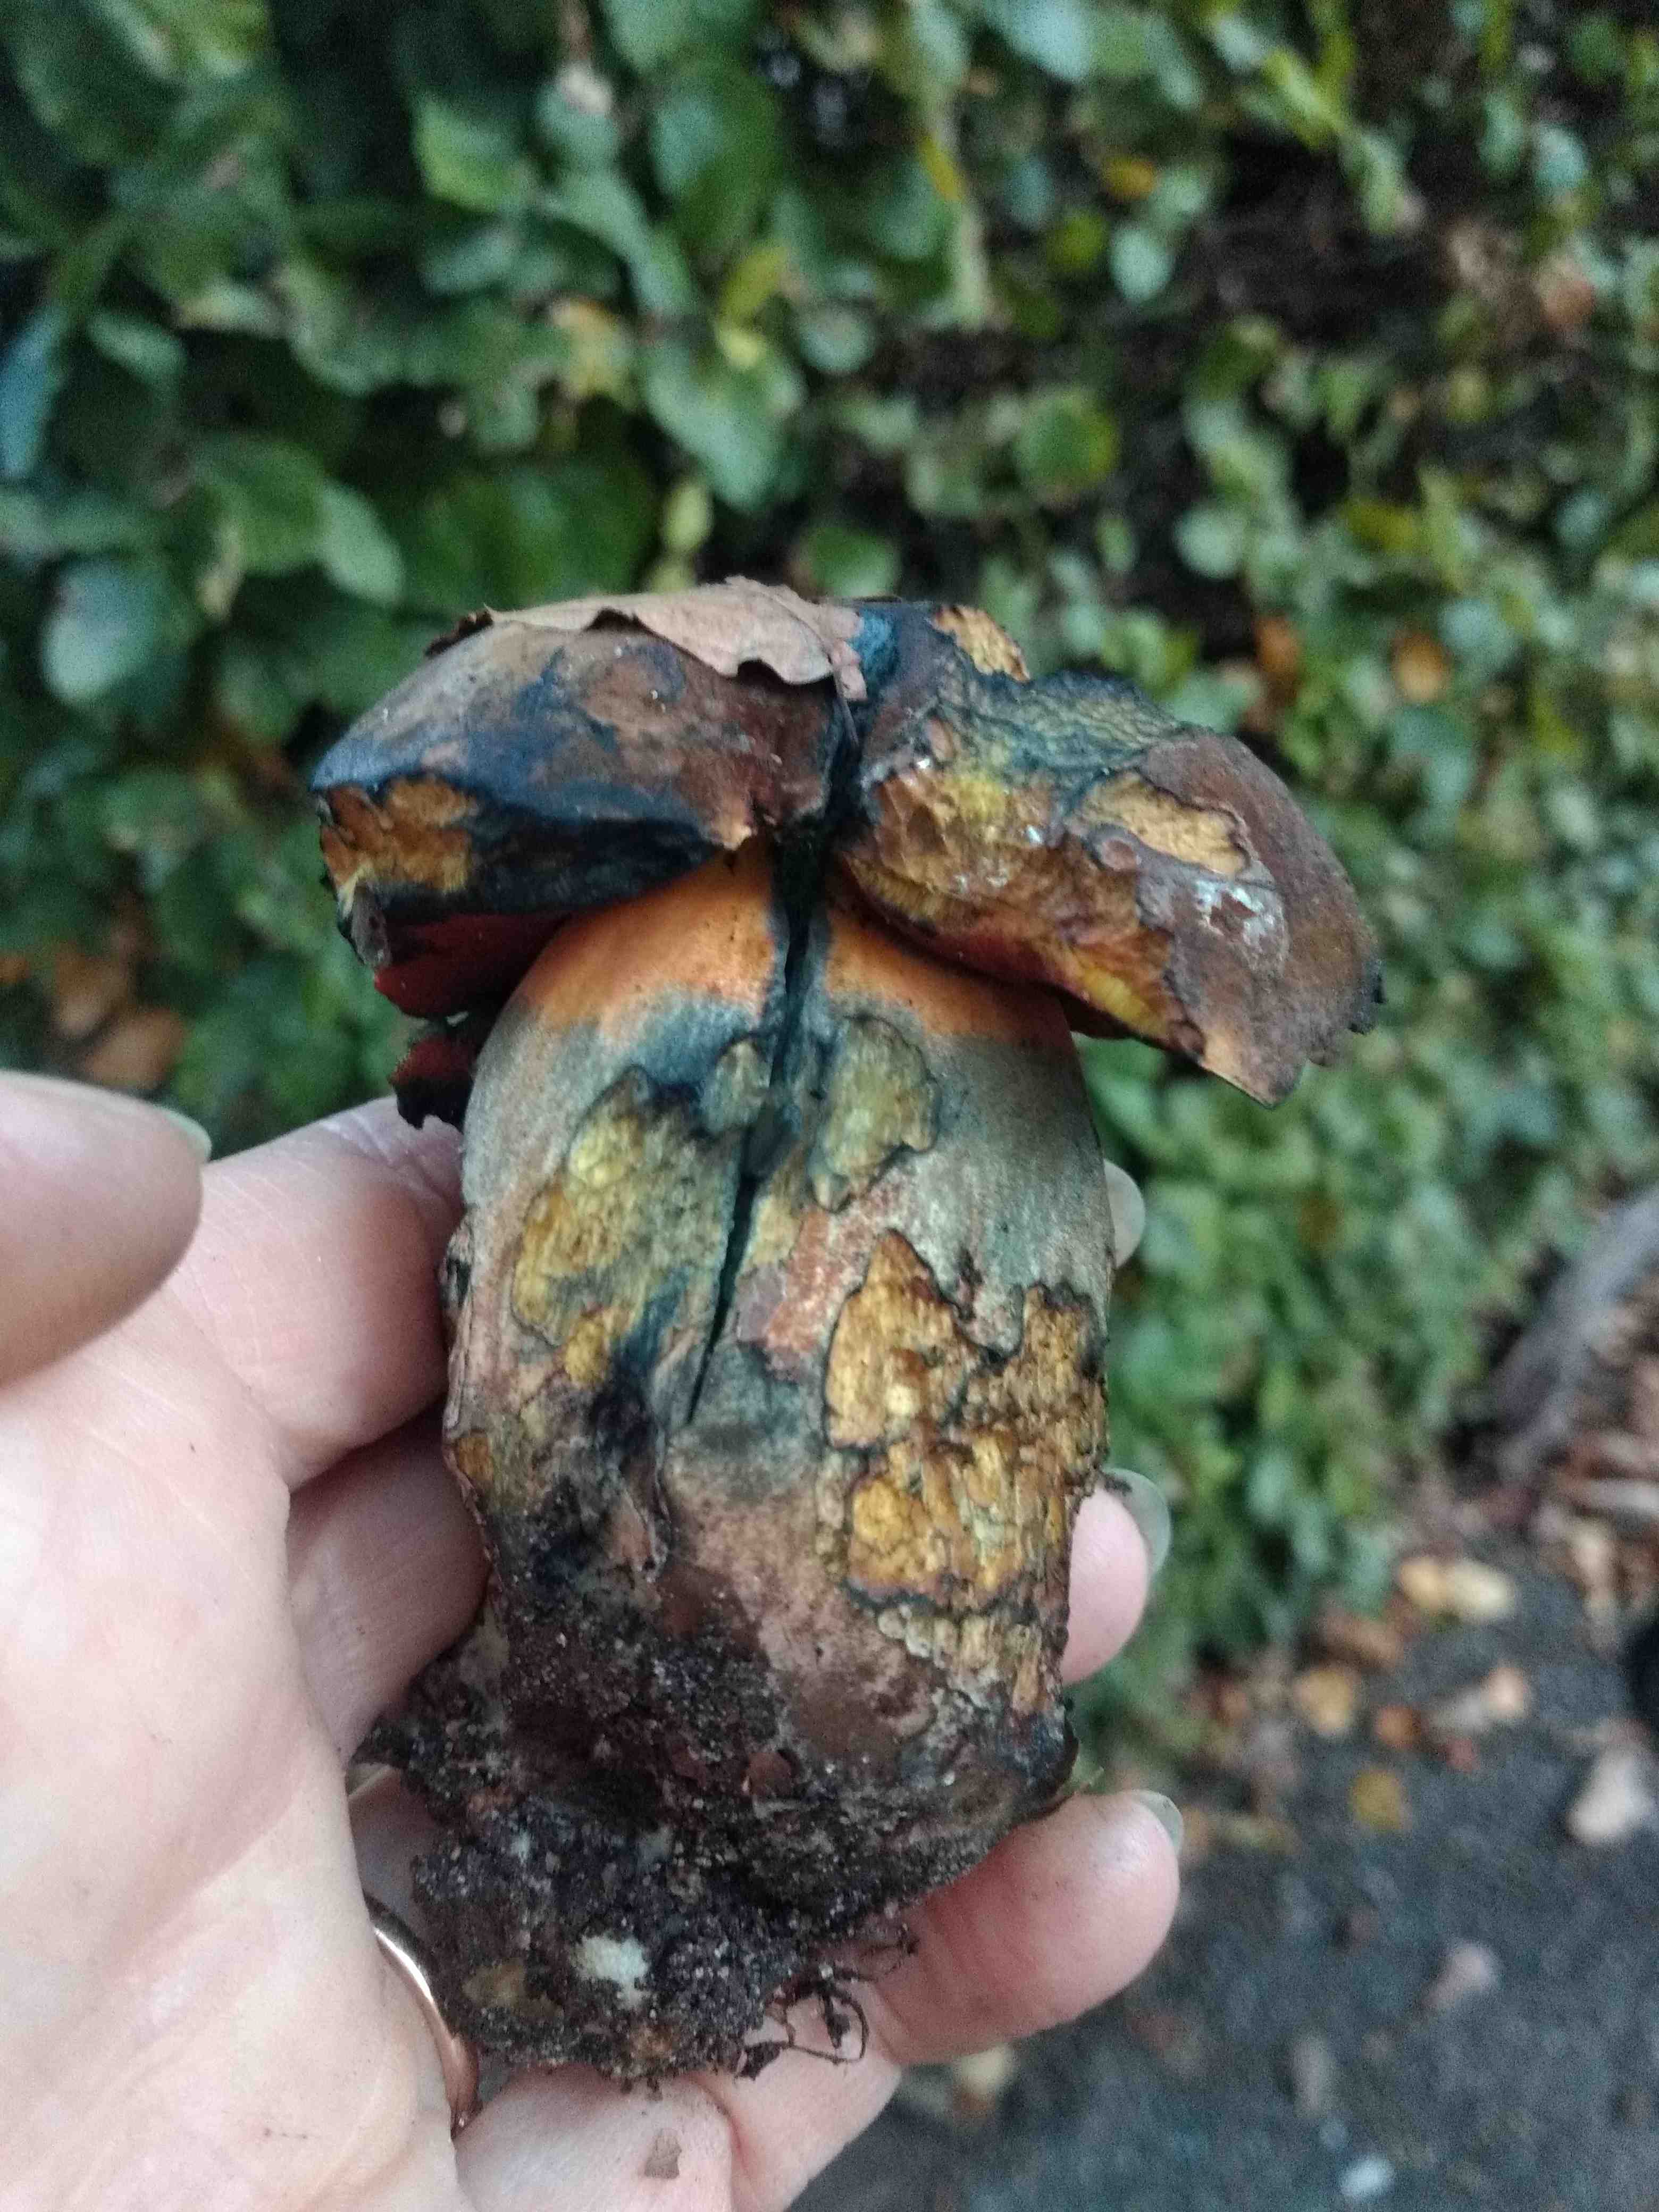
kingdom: Fungi
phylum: Basidiomycota
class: Agaricomycetes
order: Boletales
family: Boletaceae
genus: Neoboletus
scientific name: Neoboletus
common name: indigorørhat
